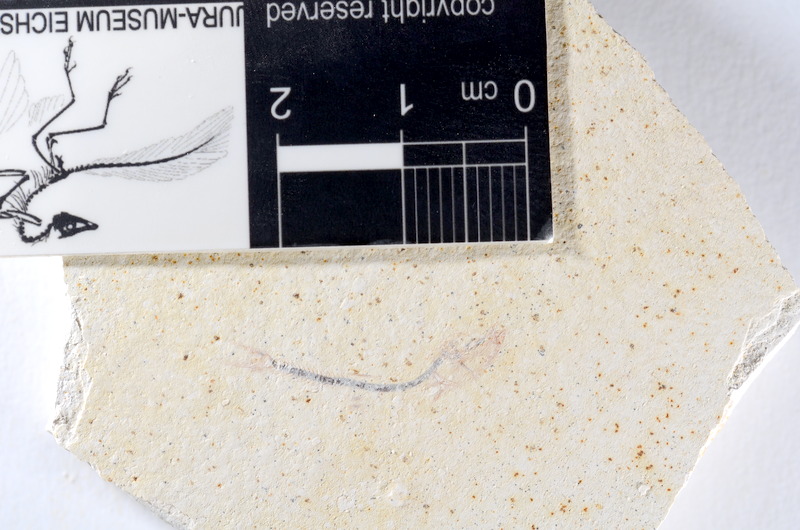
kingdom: Animalia
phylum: Chordata
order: Salmoniformes
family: Orthogonikleithridae
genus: Orthogonikleithrus
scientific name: Orthogonikleithrus hoelli
